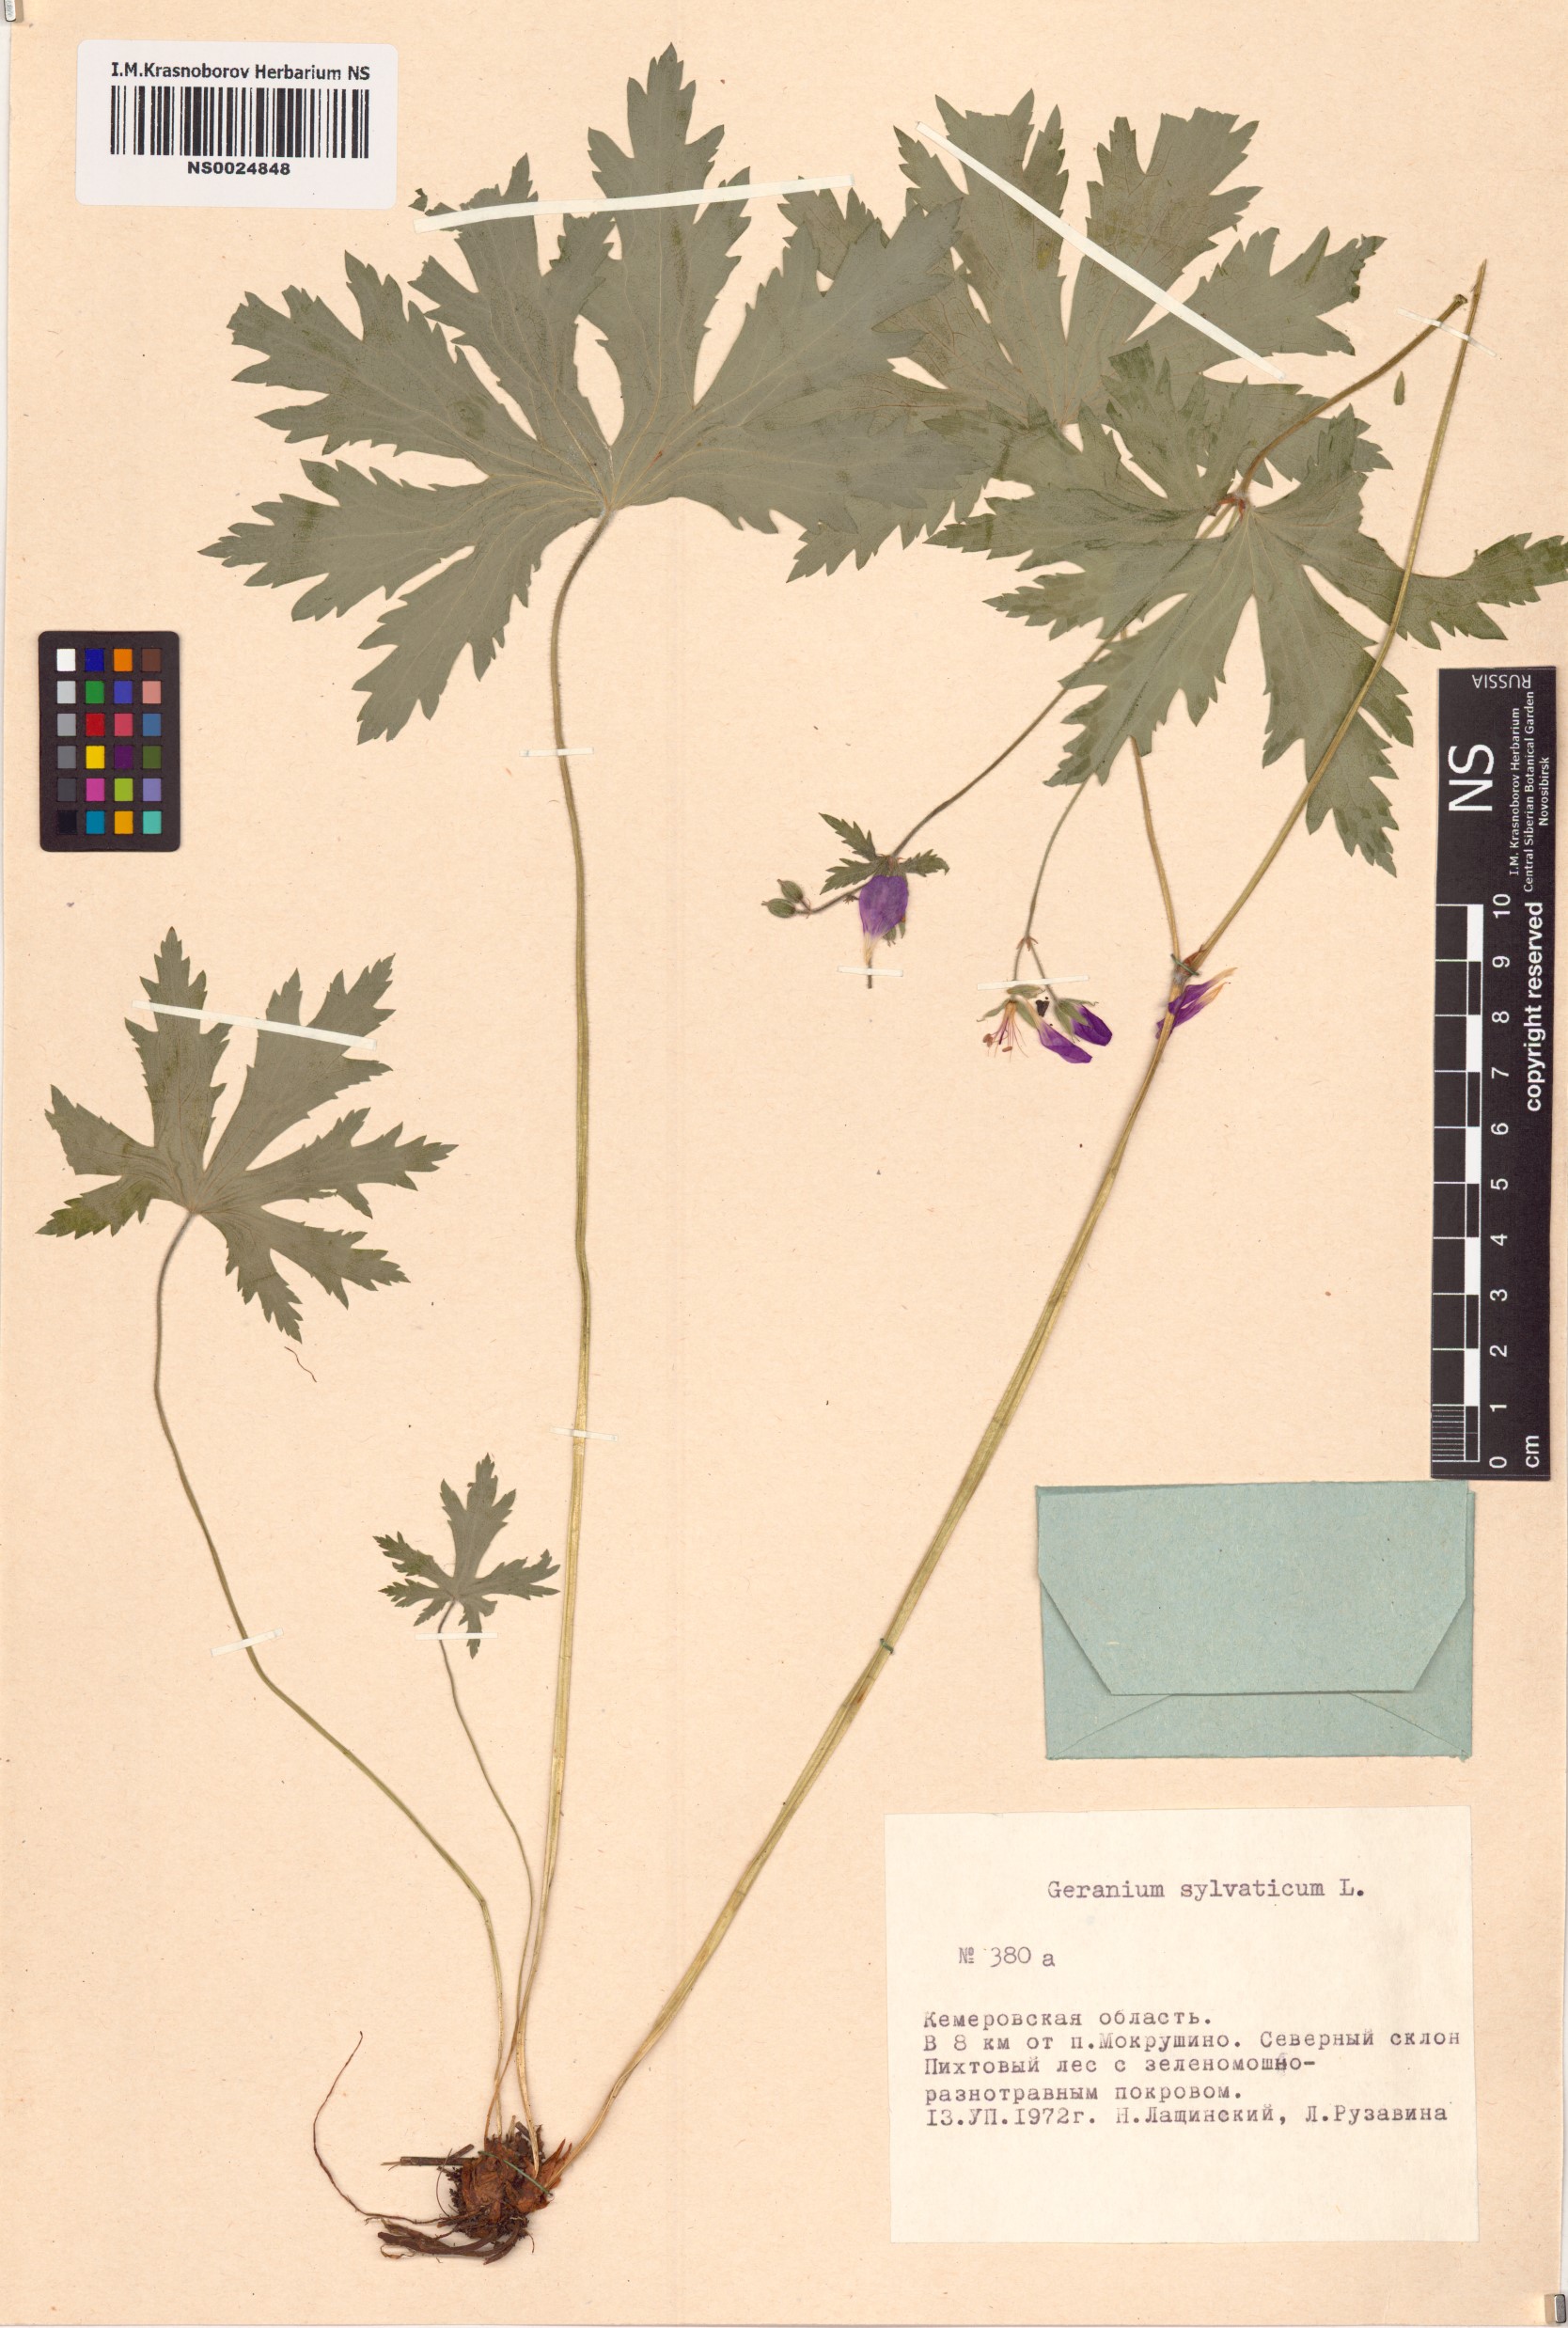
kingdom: Plantae
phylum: Tracheophyta
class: Magnoliopsida
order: Geraniales
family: Geraniaceae
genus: Geranium
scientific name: Geranium sylvaticum
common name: Wood crane's-bill
